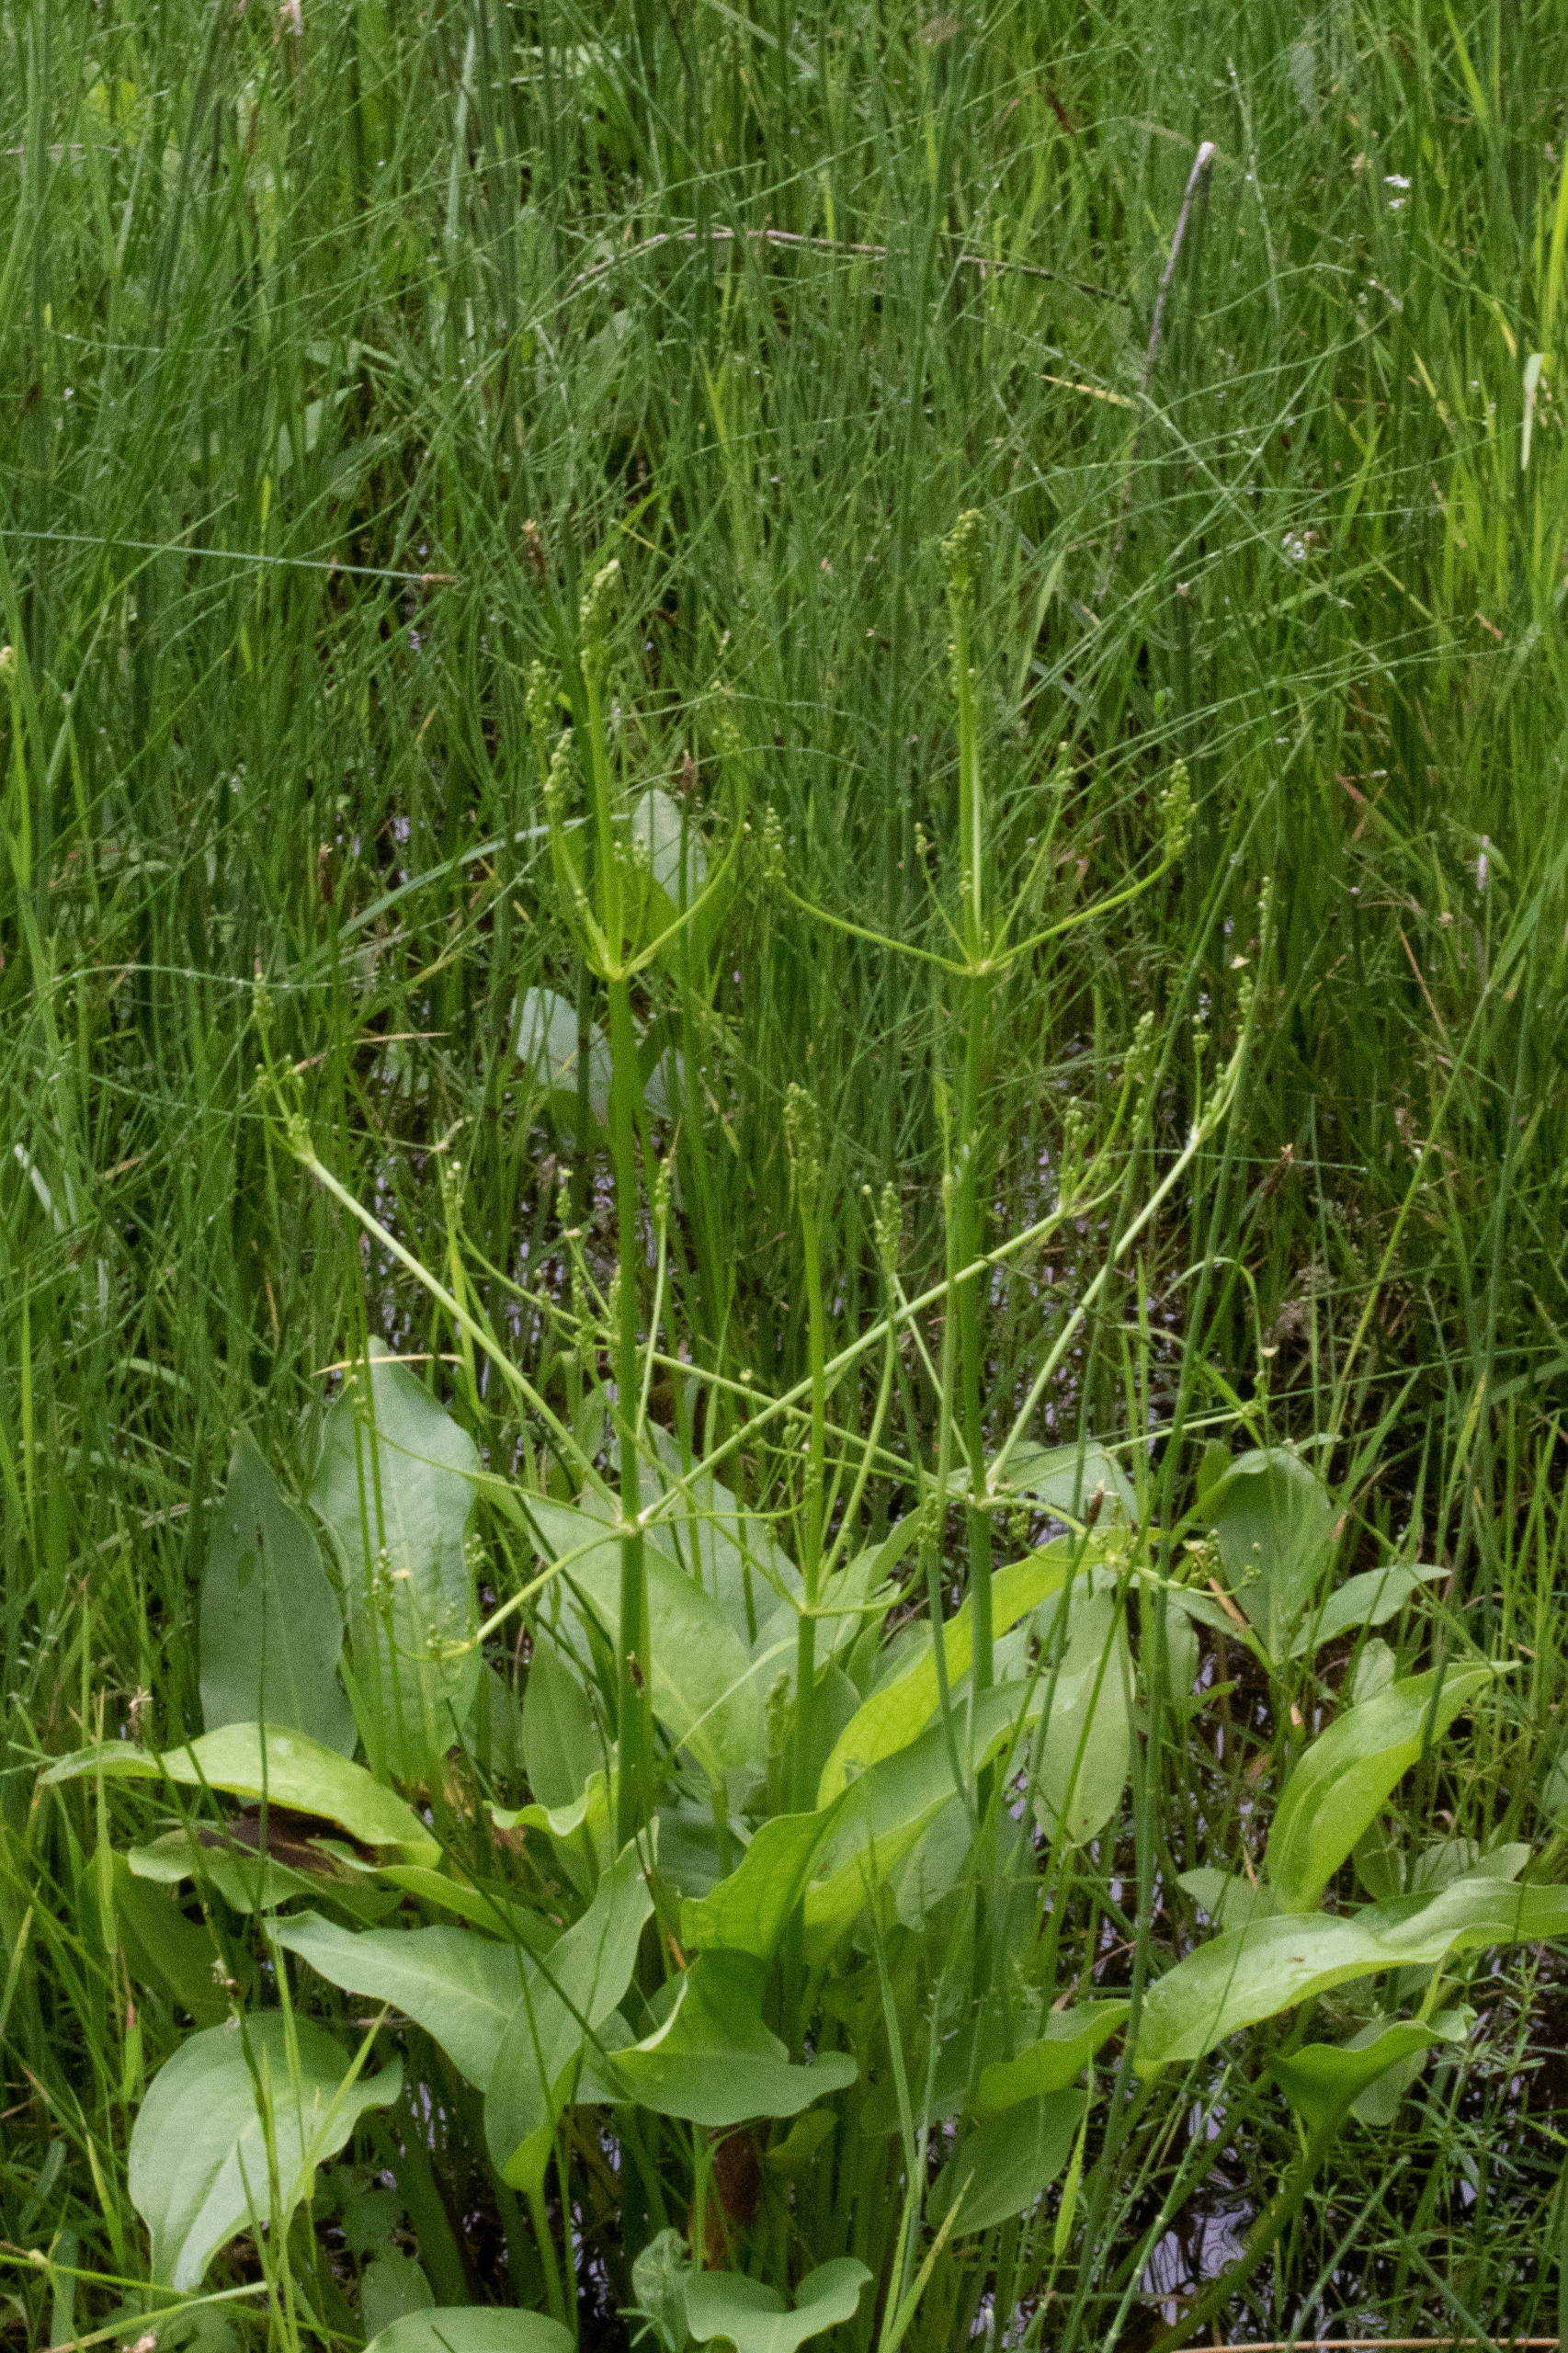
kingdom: Plantae
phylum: Tracheophyta
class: Liliopsida
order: Alismatales
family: Alismataceae
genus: Alisma
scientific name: Alisma plantago-aquatica
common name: Vejbred-skeblad
